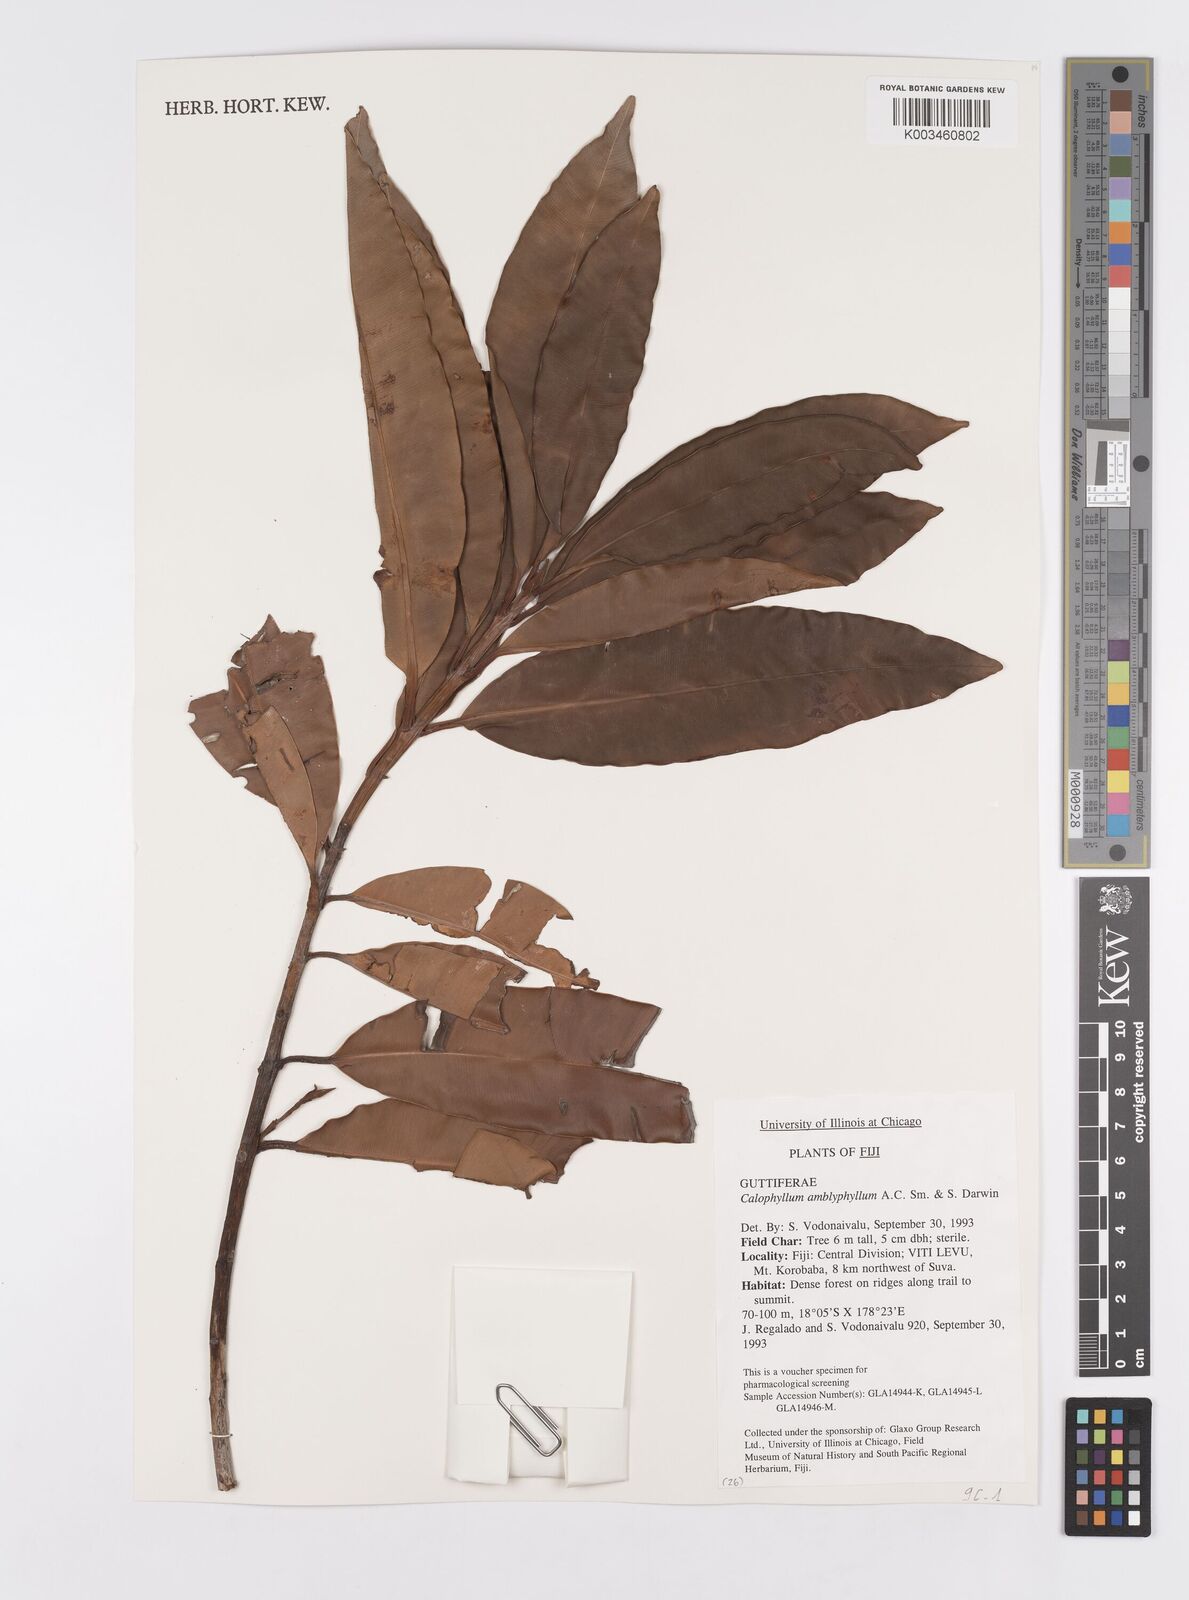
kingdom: Plantae
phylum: Tracheophyta
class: Magnoliopsida
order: Malpighiales
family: Calophyllaceae
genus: Calophyllum
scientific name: Calophyllum vitiense
